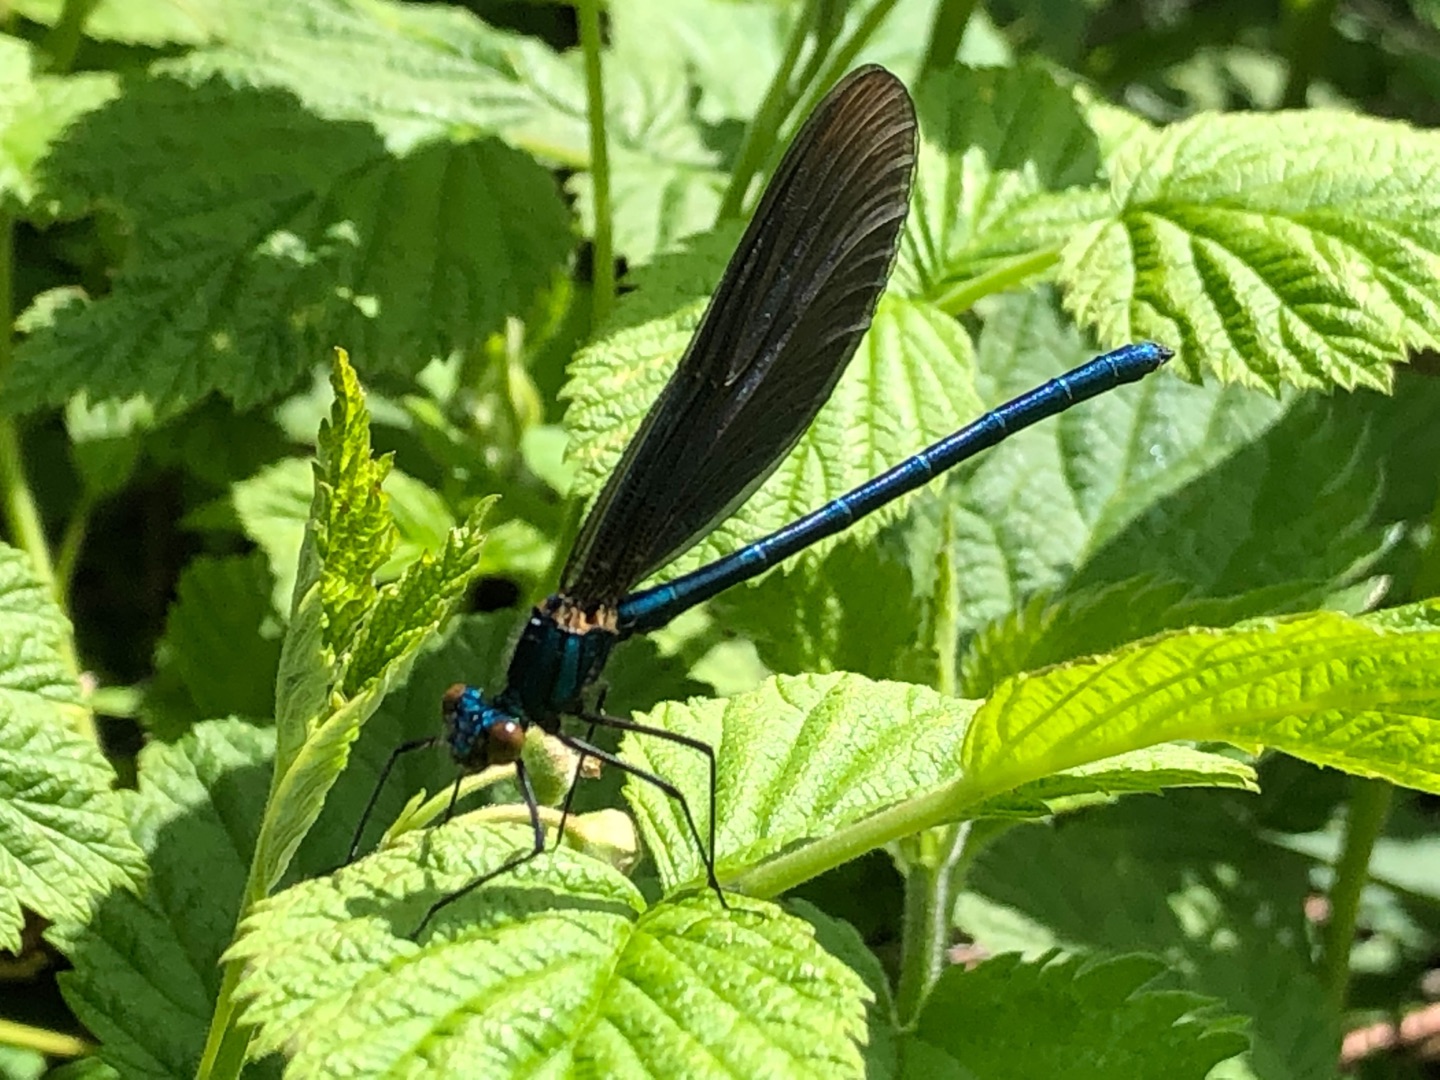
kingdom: Animalia
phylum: Arthropoda
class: Insecta
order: Odonata
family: Calopterygidae
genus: Calopteryx
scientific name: Calopteryx virgo
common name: Blåvinget pragtvandnymfe
